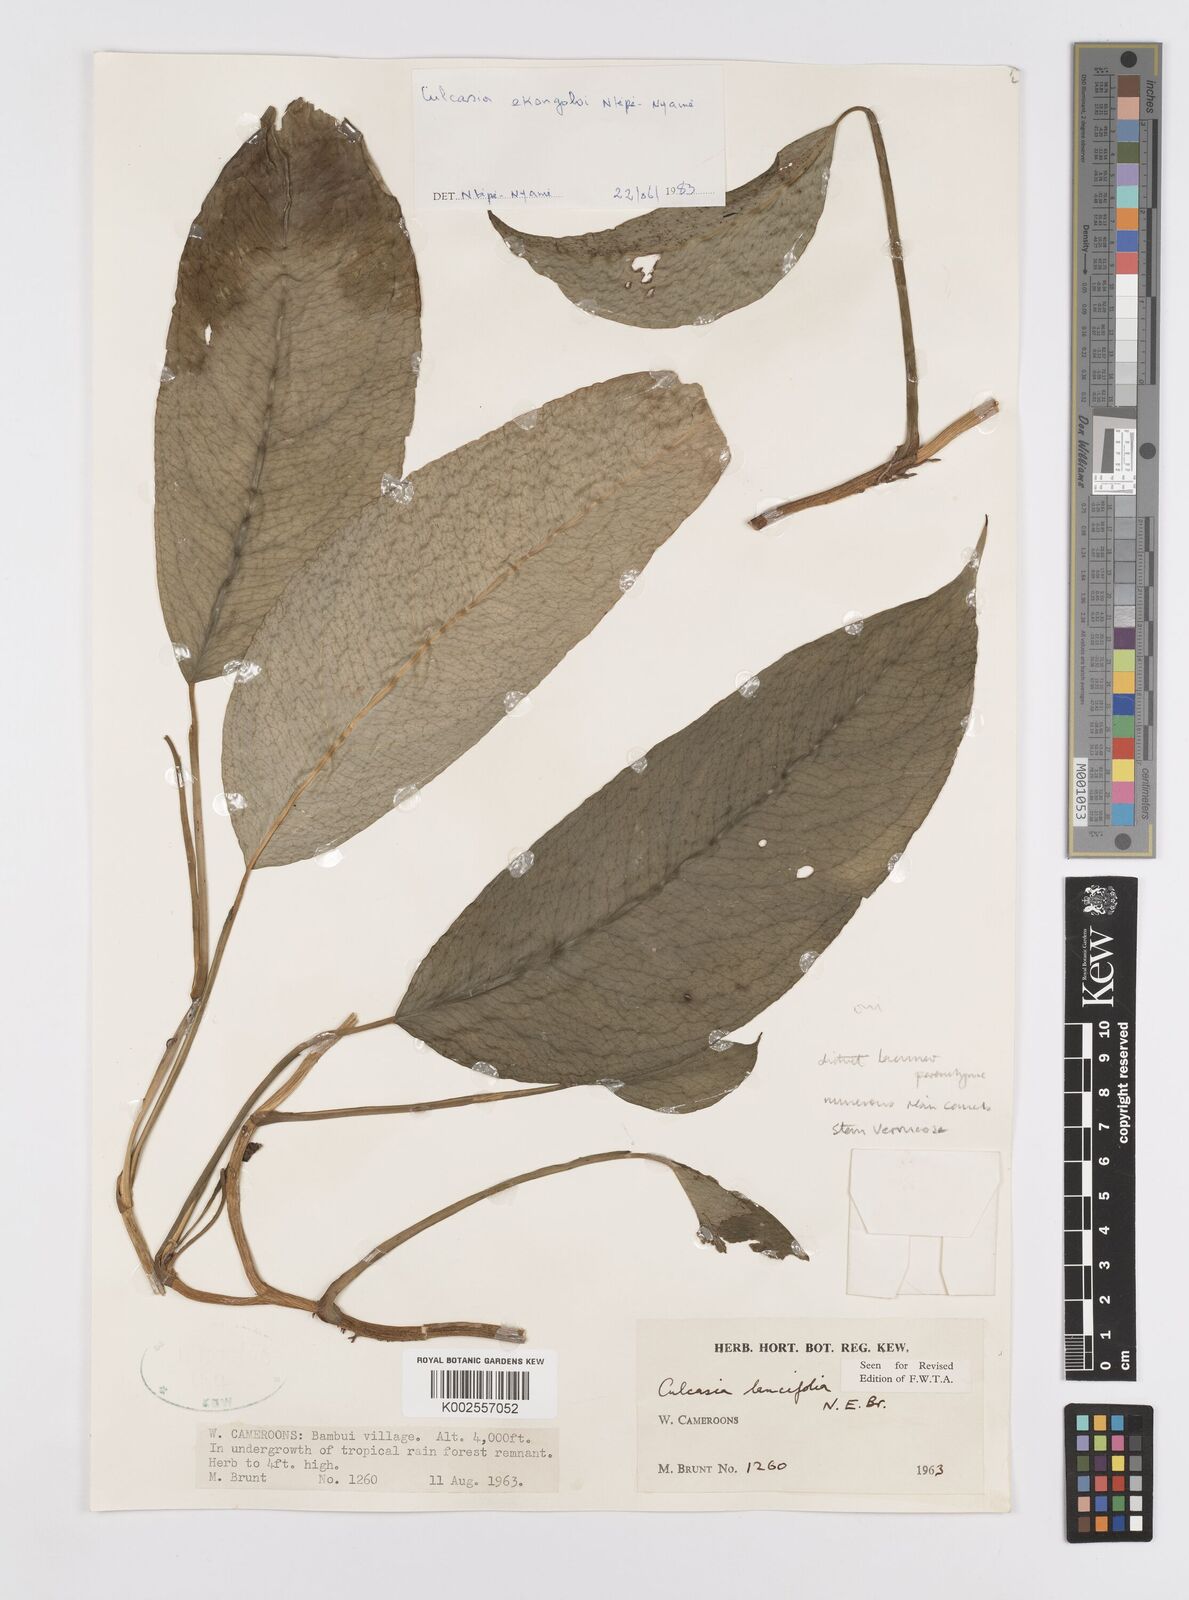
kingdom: Plantae
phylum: Tracheophyta
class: Liliopsida
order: Alismatales
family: Araceae
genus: Culcasia
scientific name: Culcasia ekongoloi
